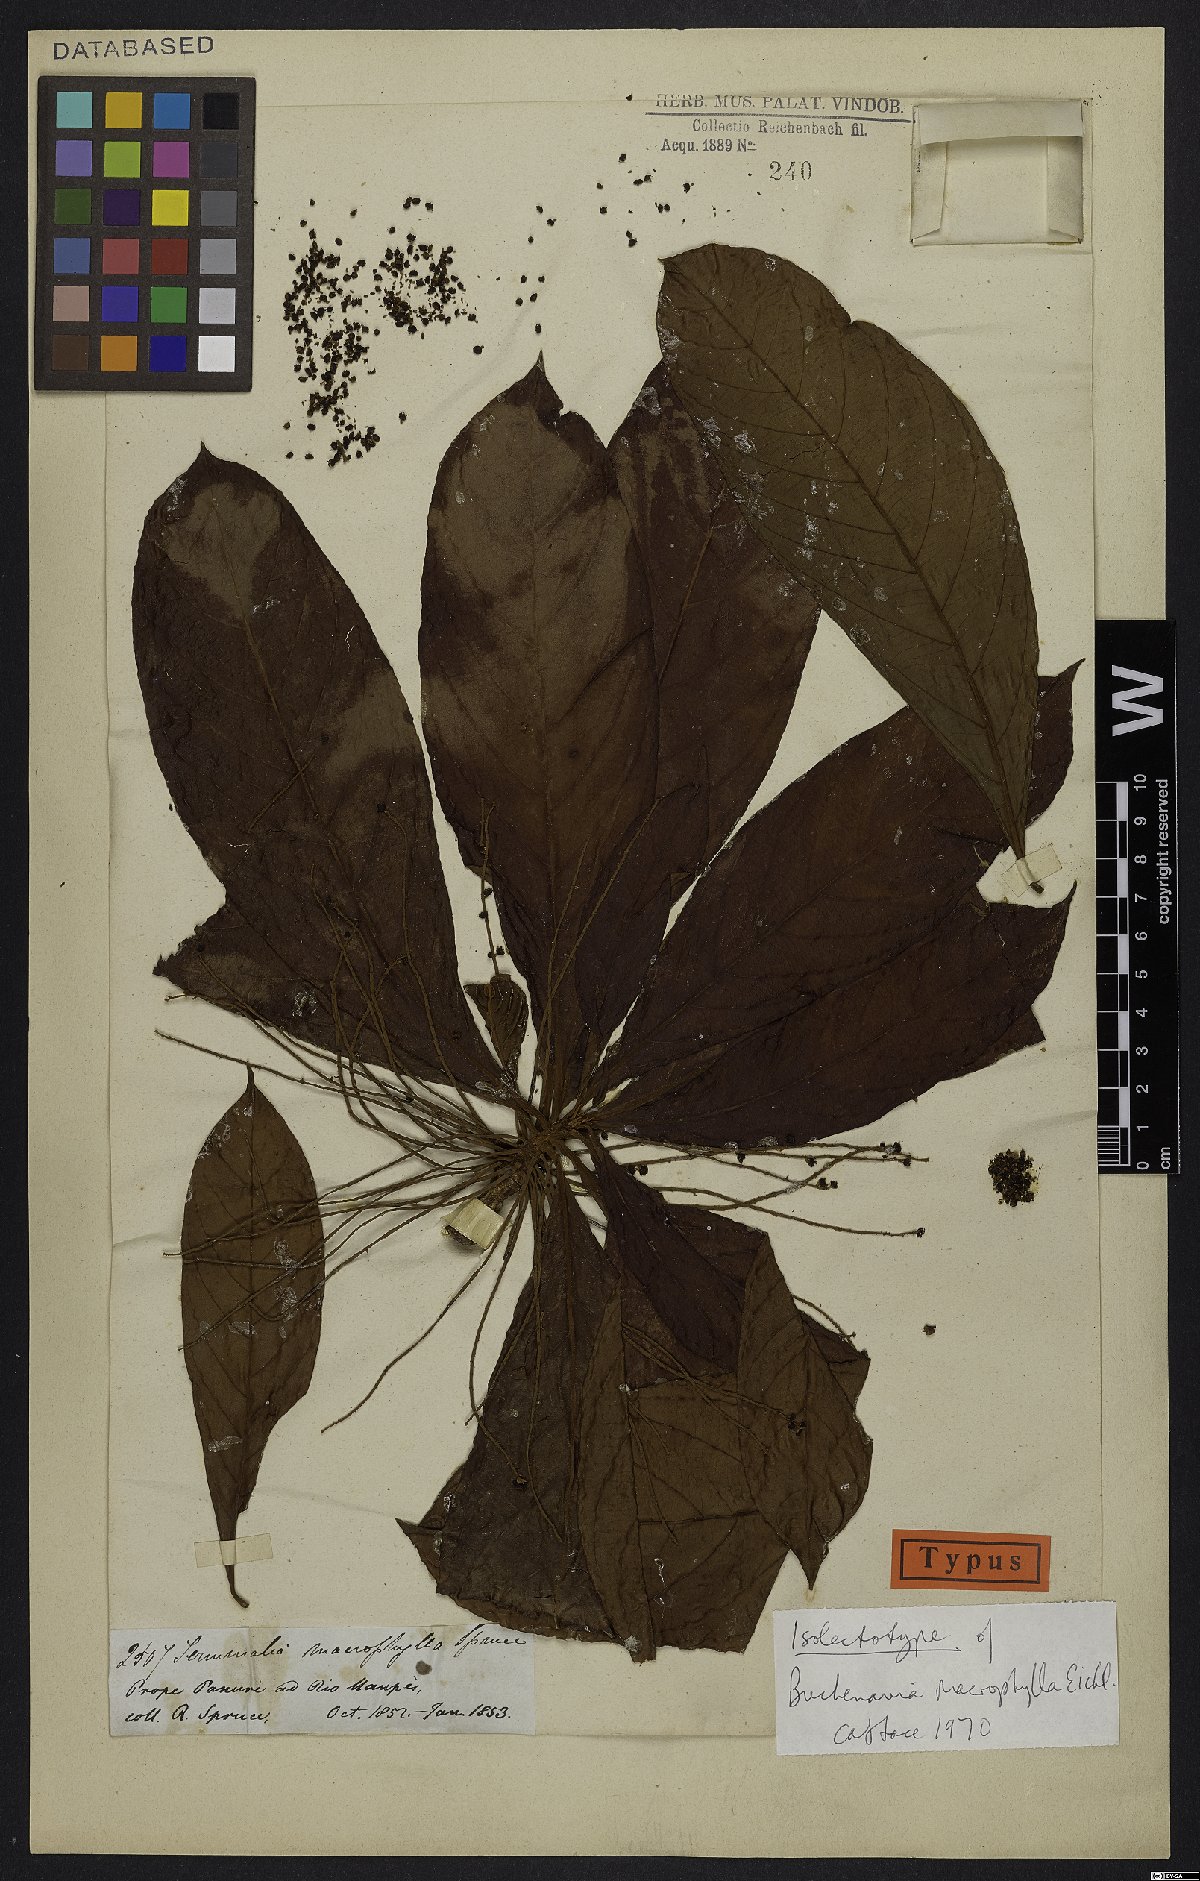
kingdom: Plantae
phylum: Tracheophyta
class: Magnoliopsida
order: Myrtales
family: Combretaceae
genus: Terminalia
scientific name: Terminalia macrophylla
